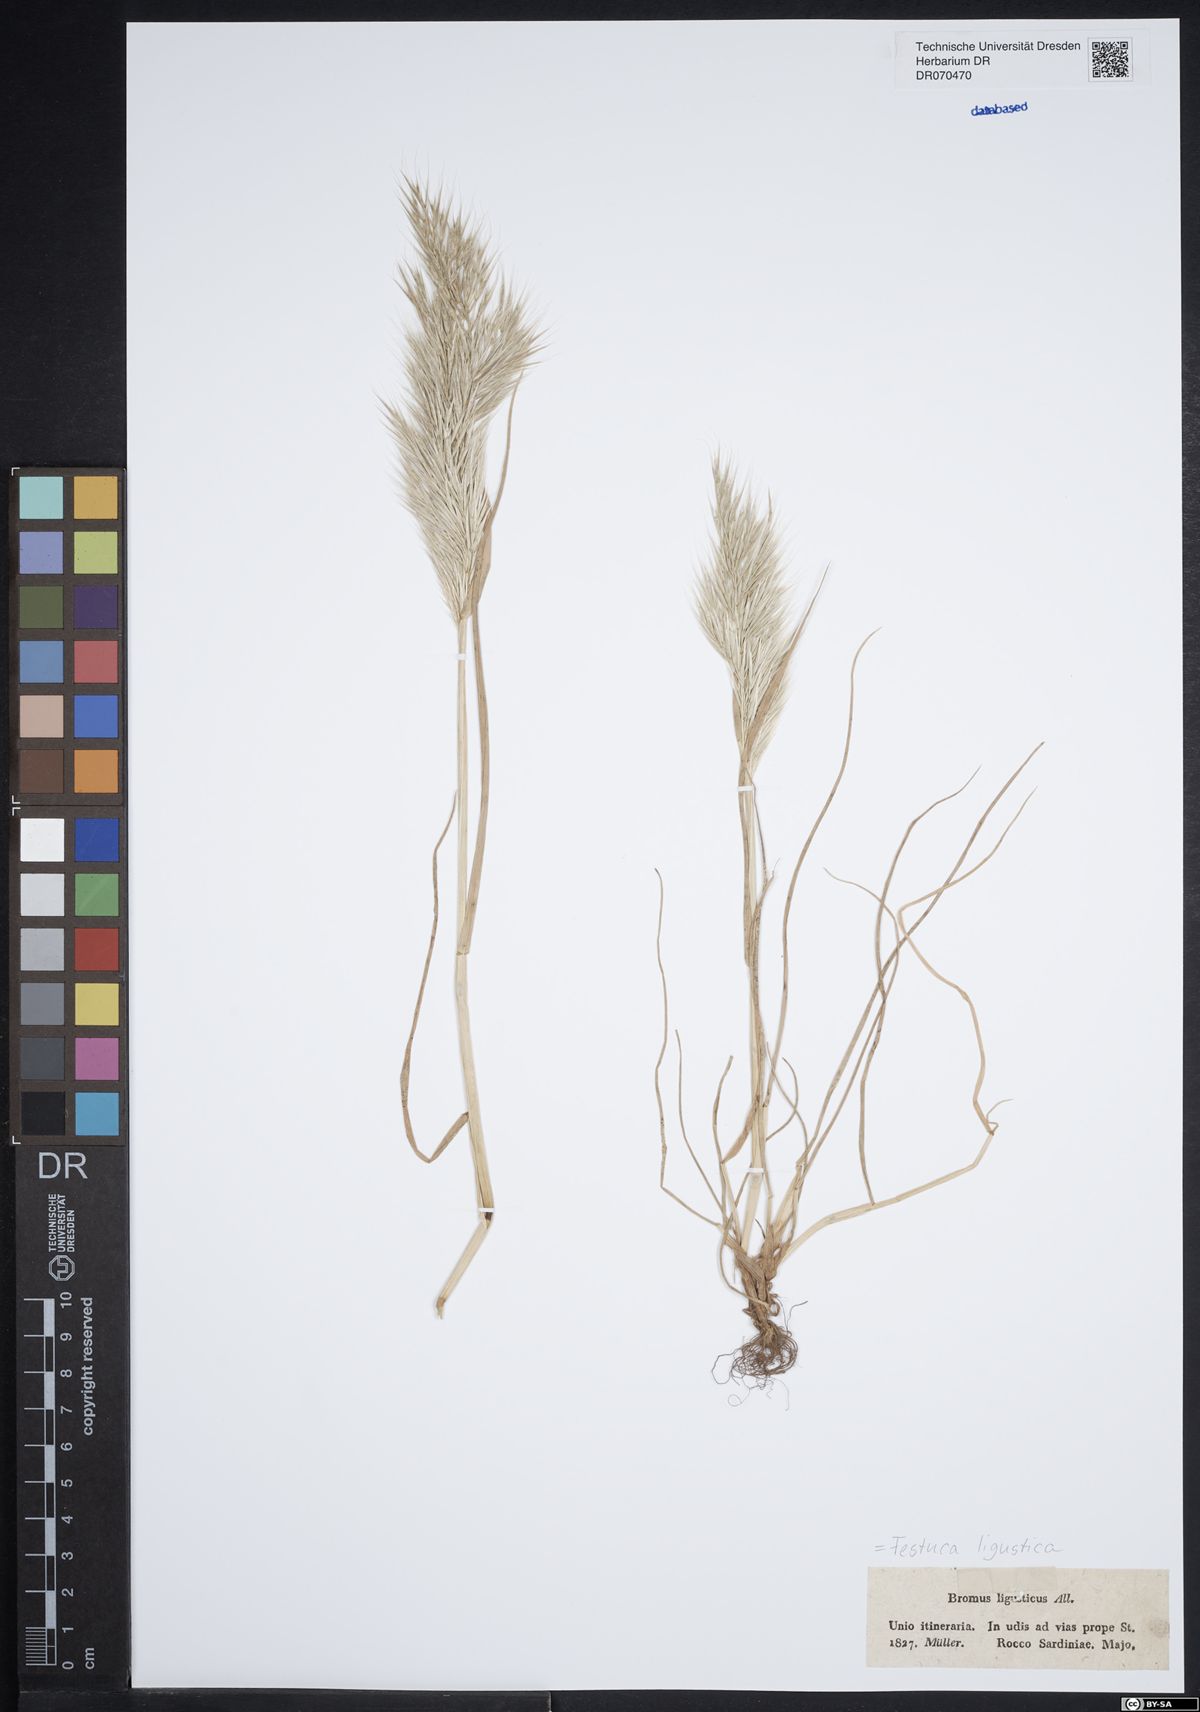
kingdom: Plantae
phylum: Tracheophyta
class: Liliopsida
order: Poales
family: Poaceae
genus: Festuca
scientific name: Festuca ligustica
